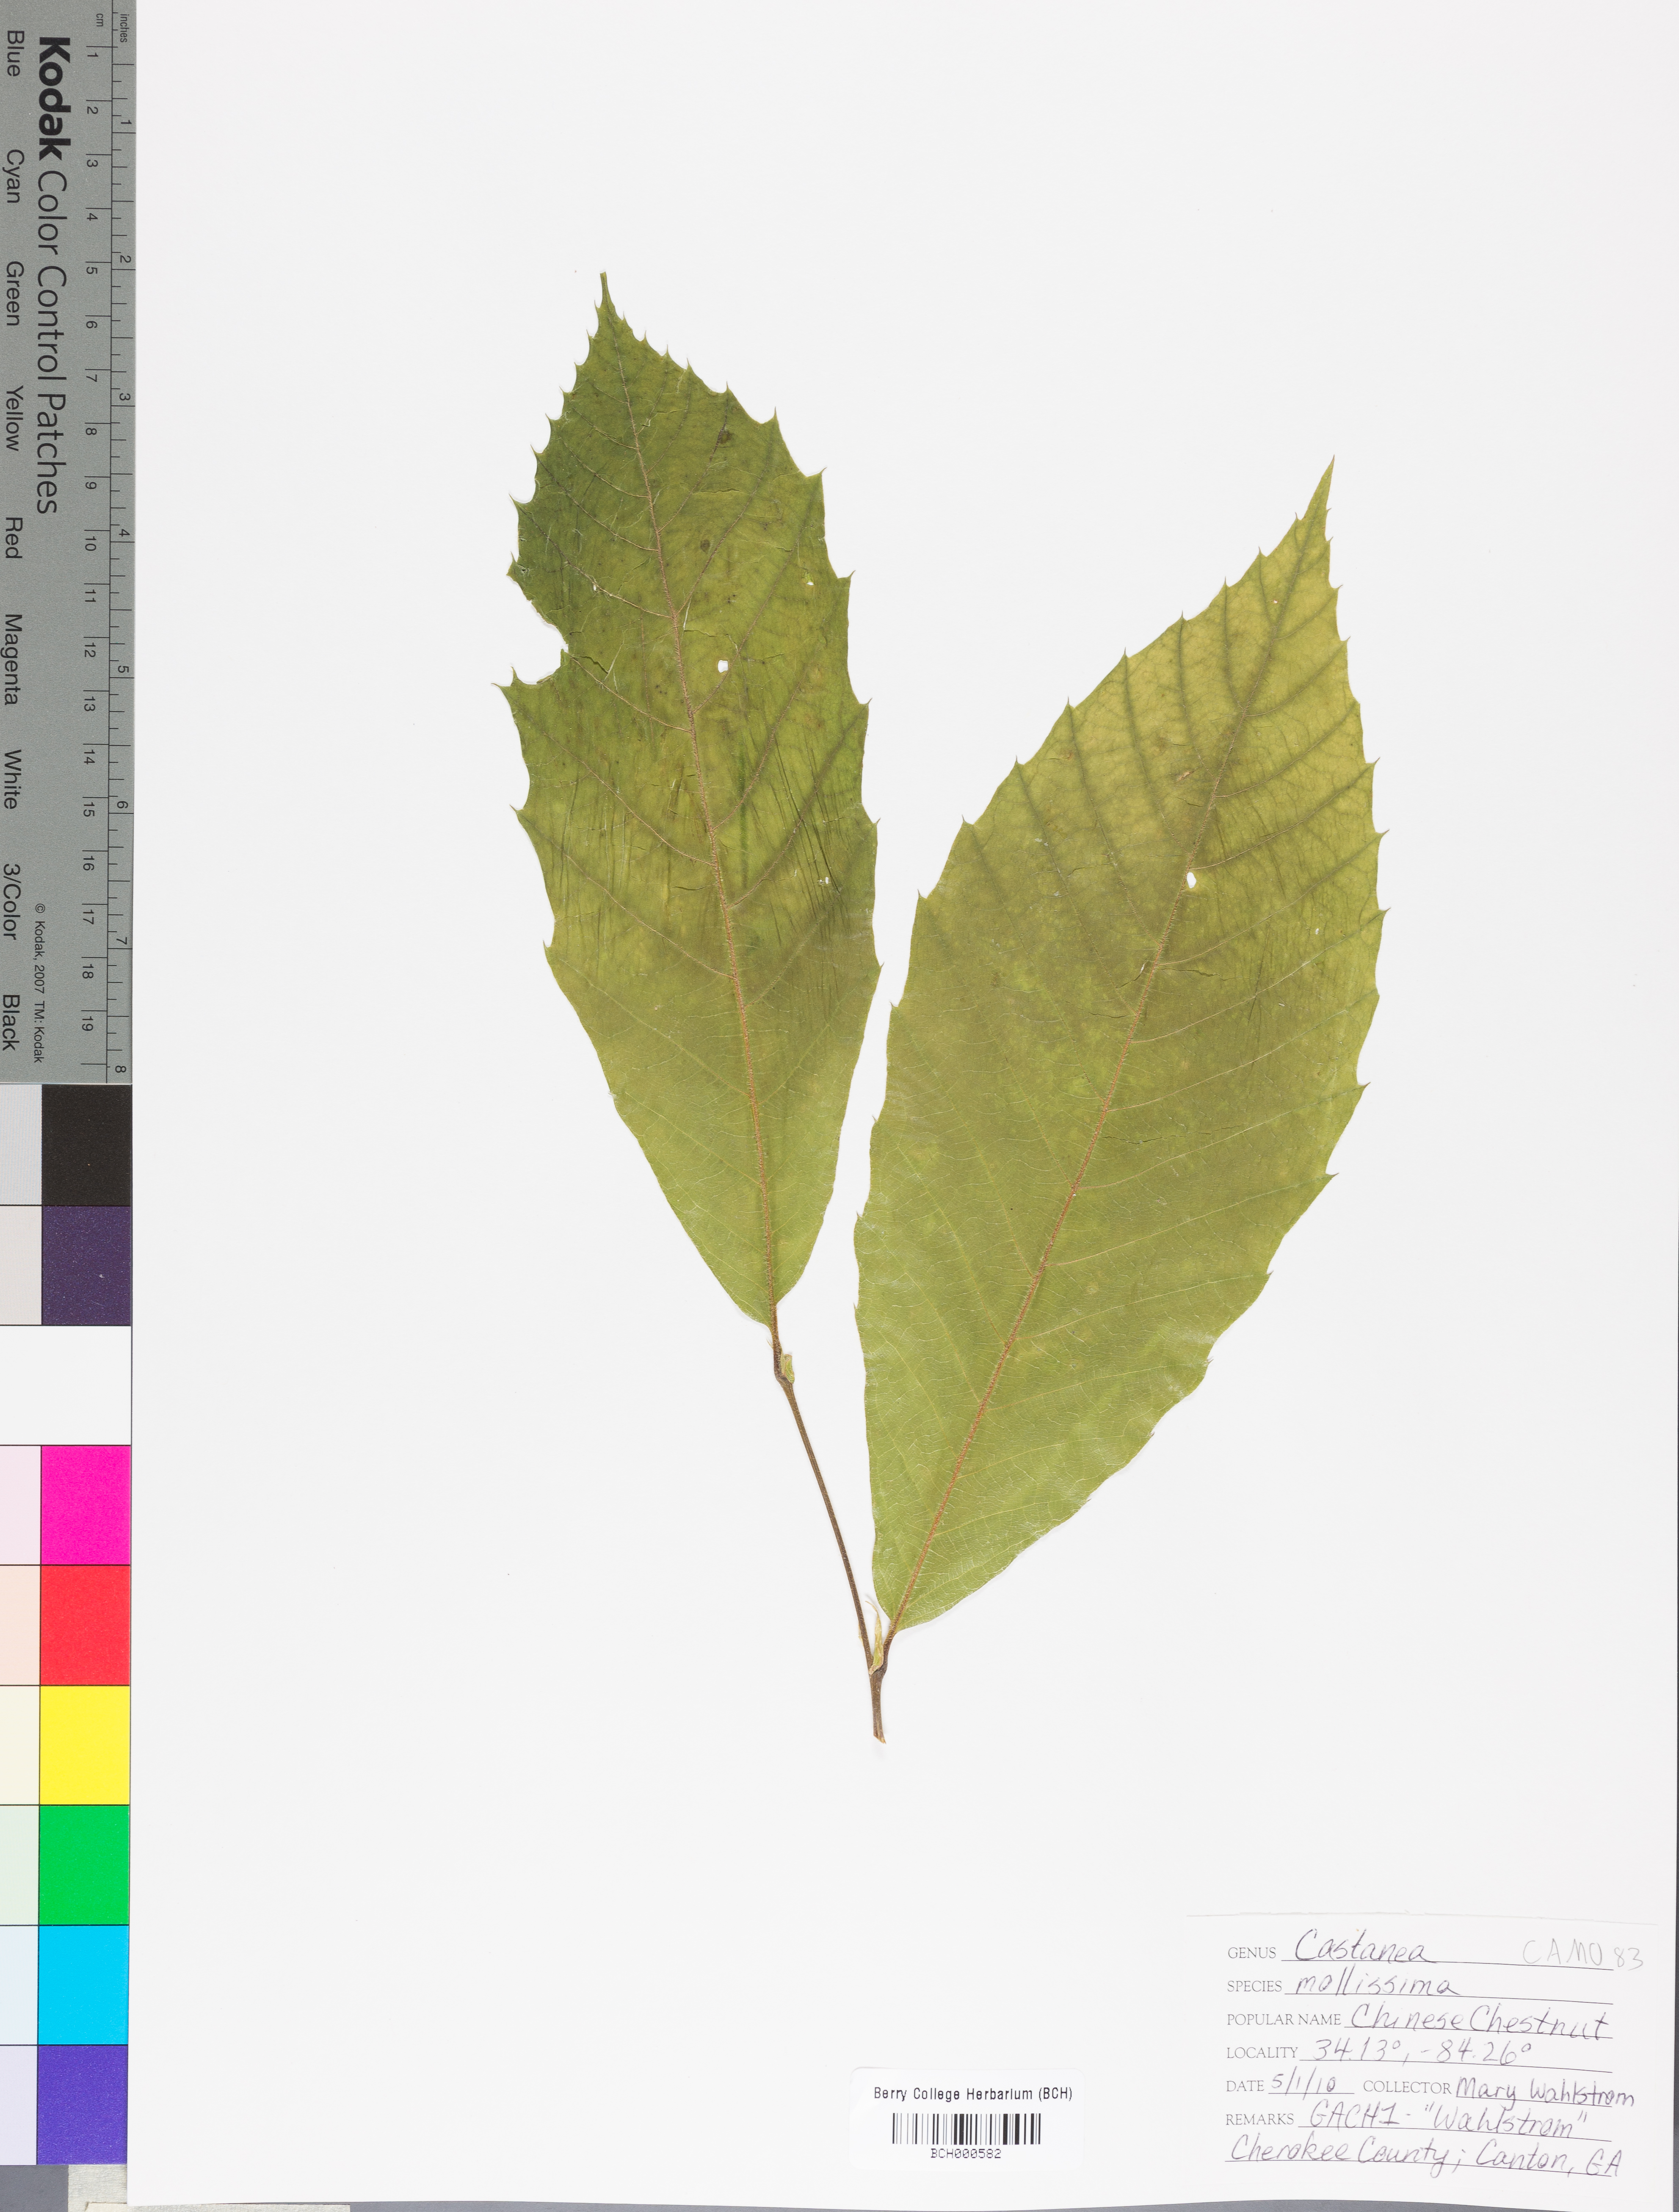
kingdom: Plantae
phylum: Tracheophyta
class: Magnoliopsida
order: Fagales
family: Fagaceae
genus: Castanea
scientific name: Castanea mollissima
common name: Chinese chestnut
